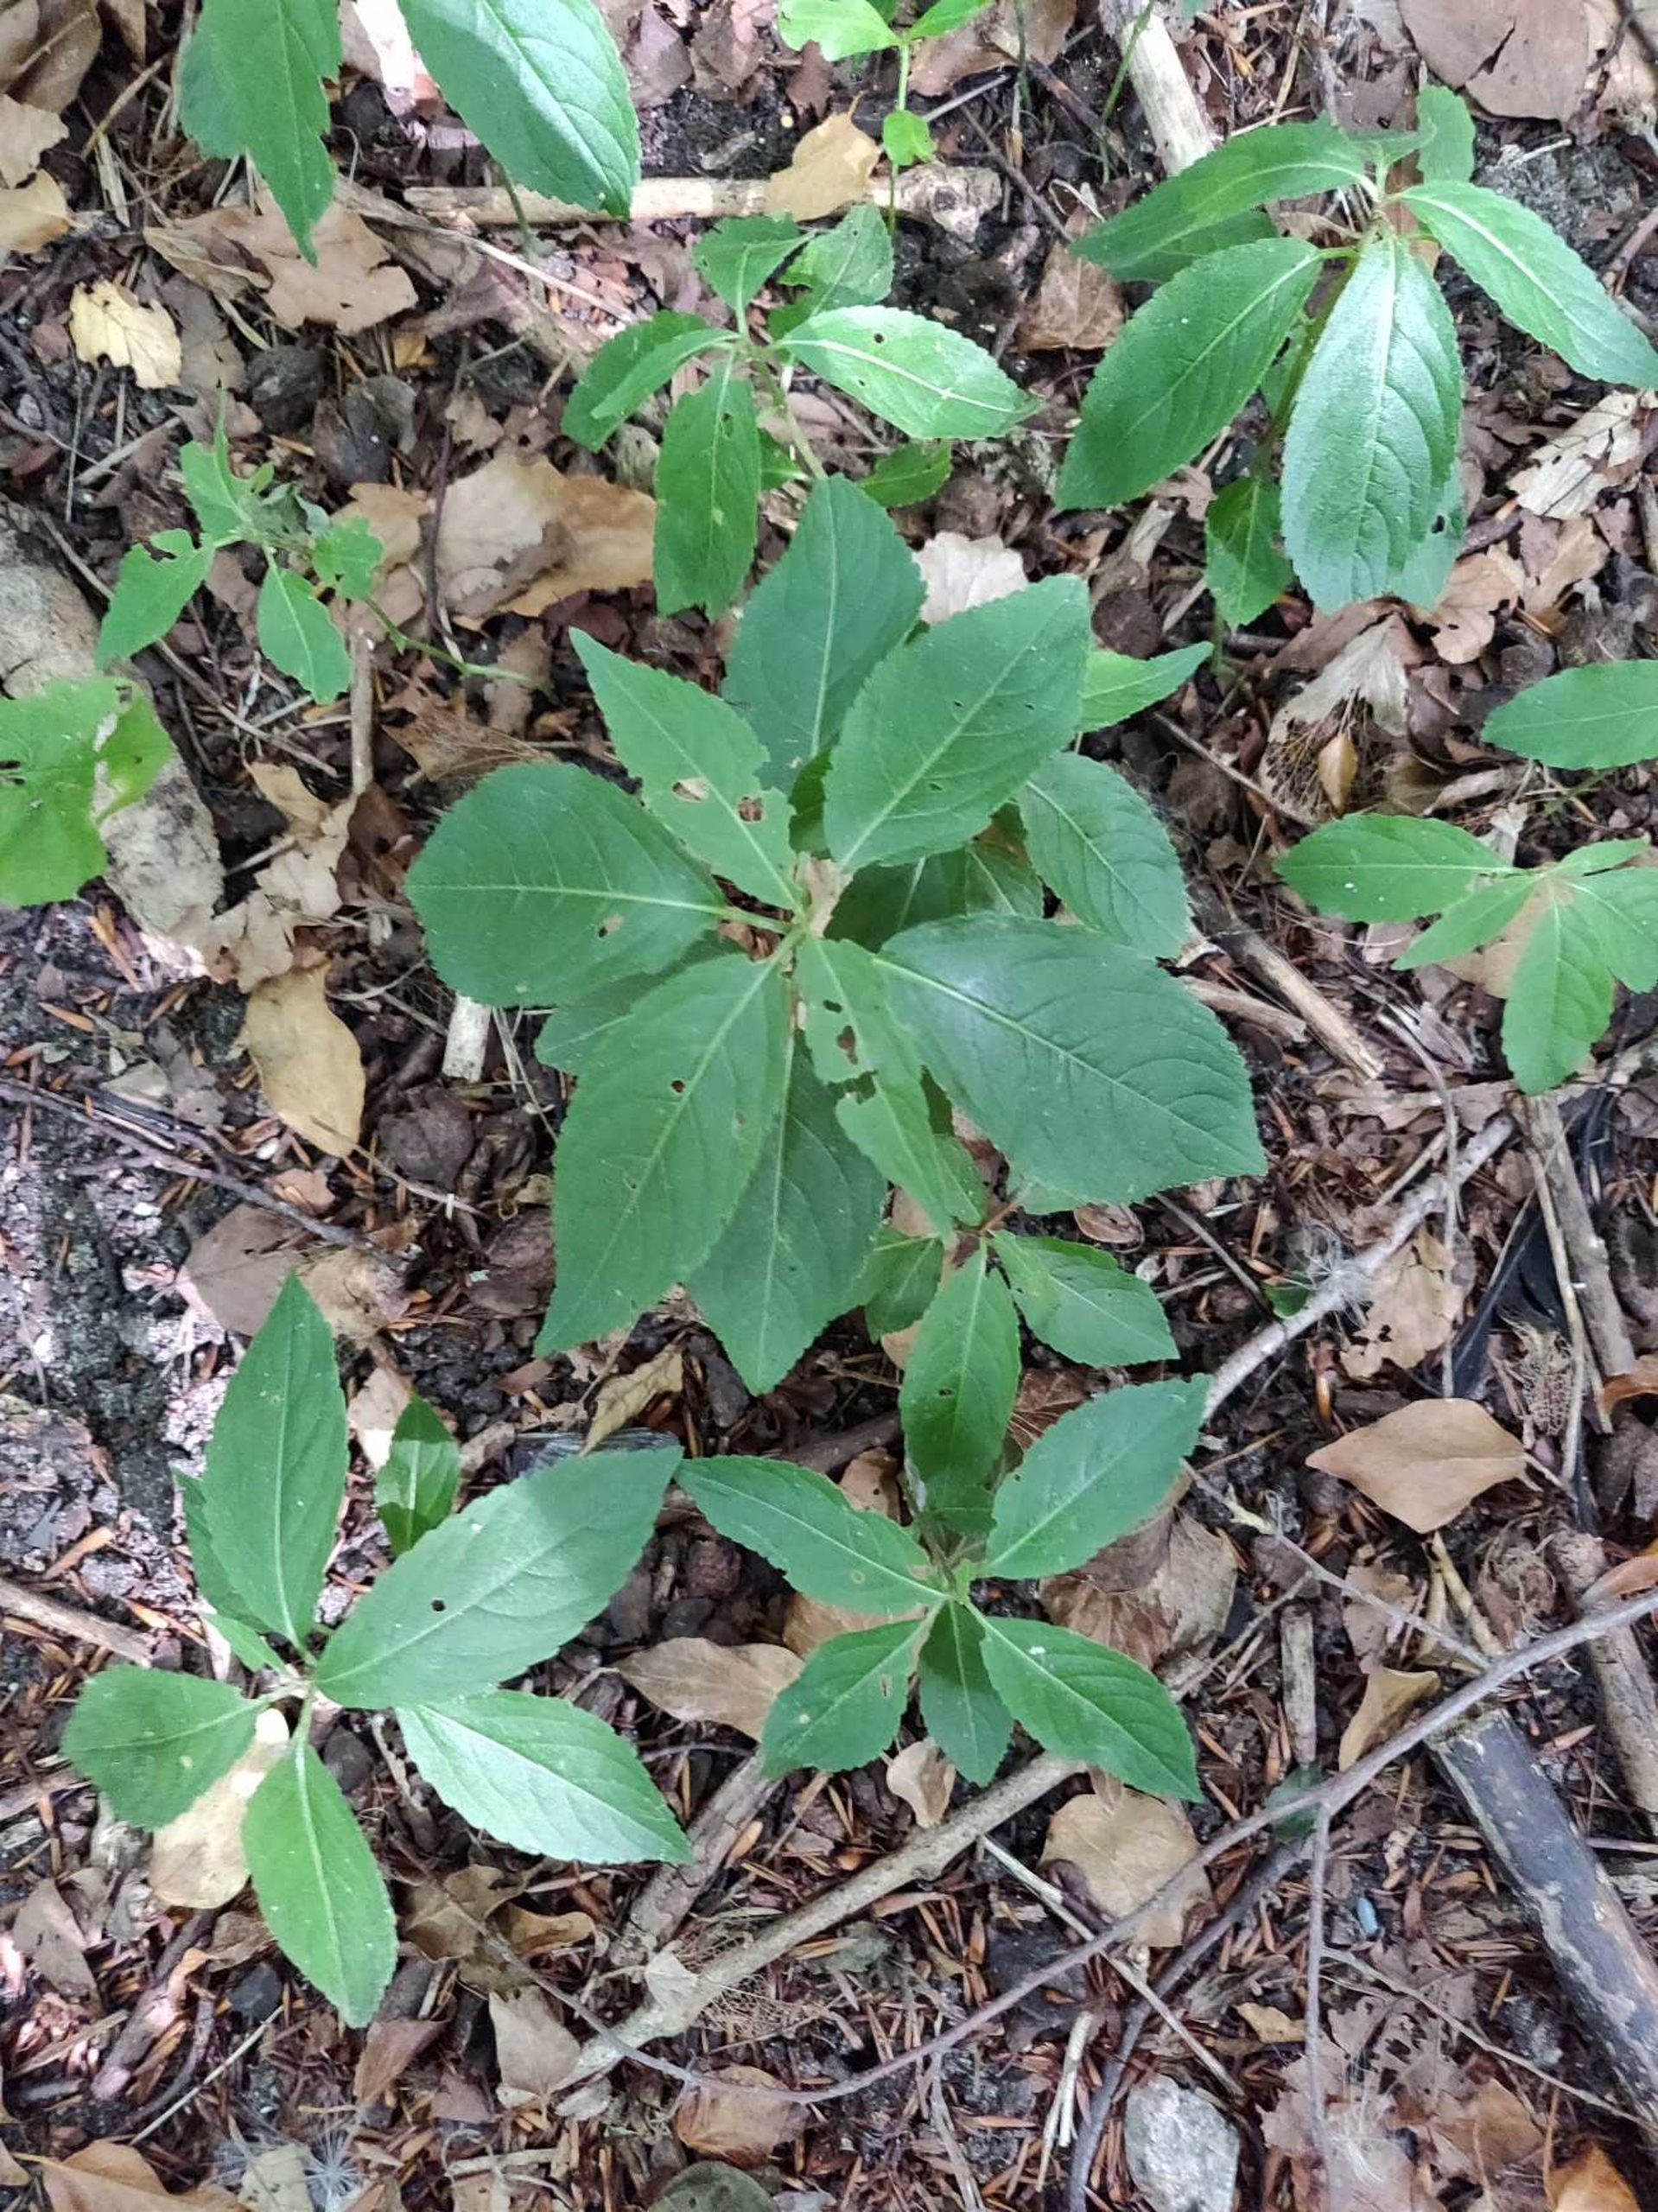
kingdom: Plantae
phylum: Tracheophyta
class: Magnoliopsida
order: Malpighiales
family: Euphorbiaceae
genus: Mercurialis
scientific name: Mercurialis perennis
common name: Almindelig bingelurt
